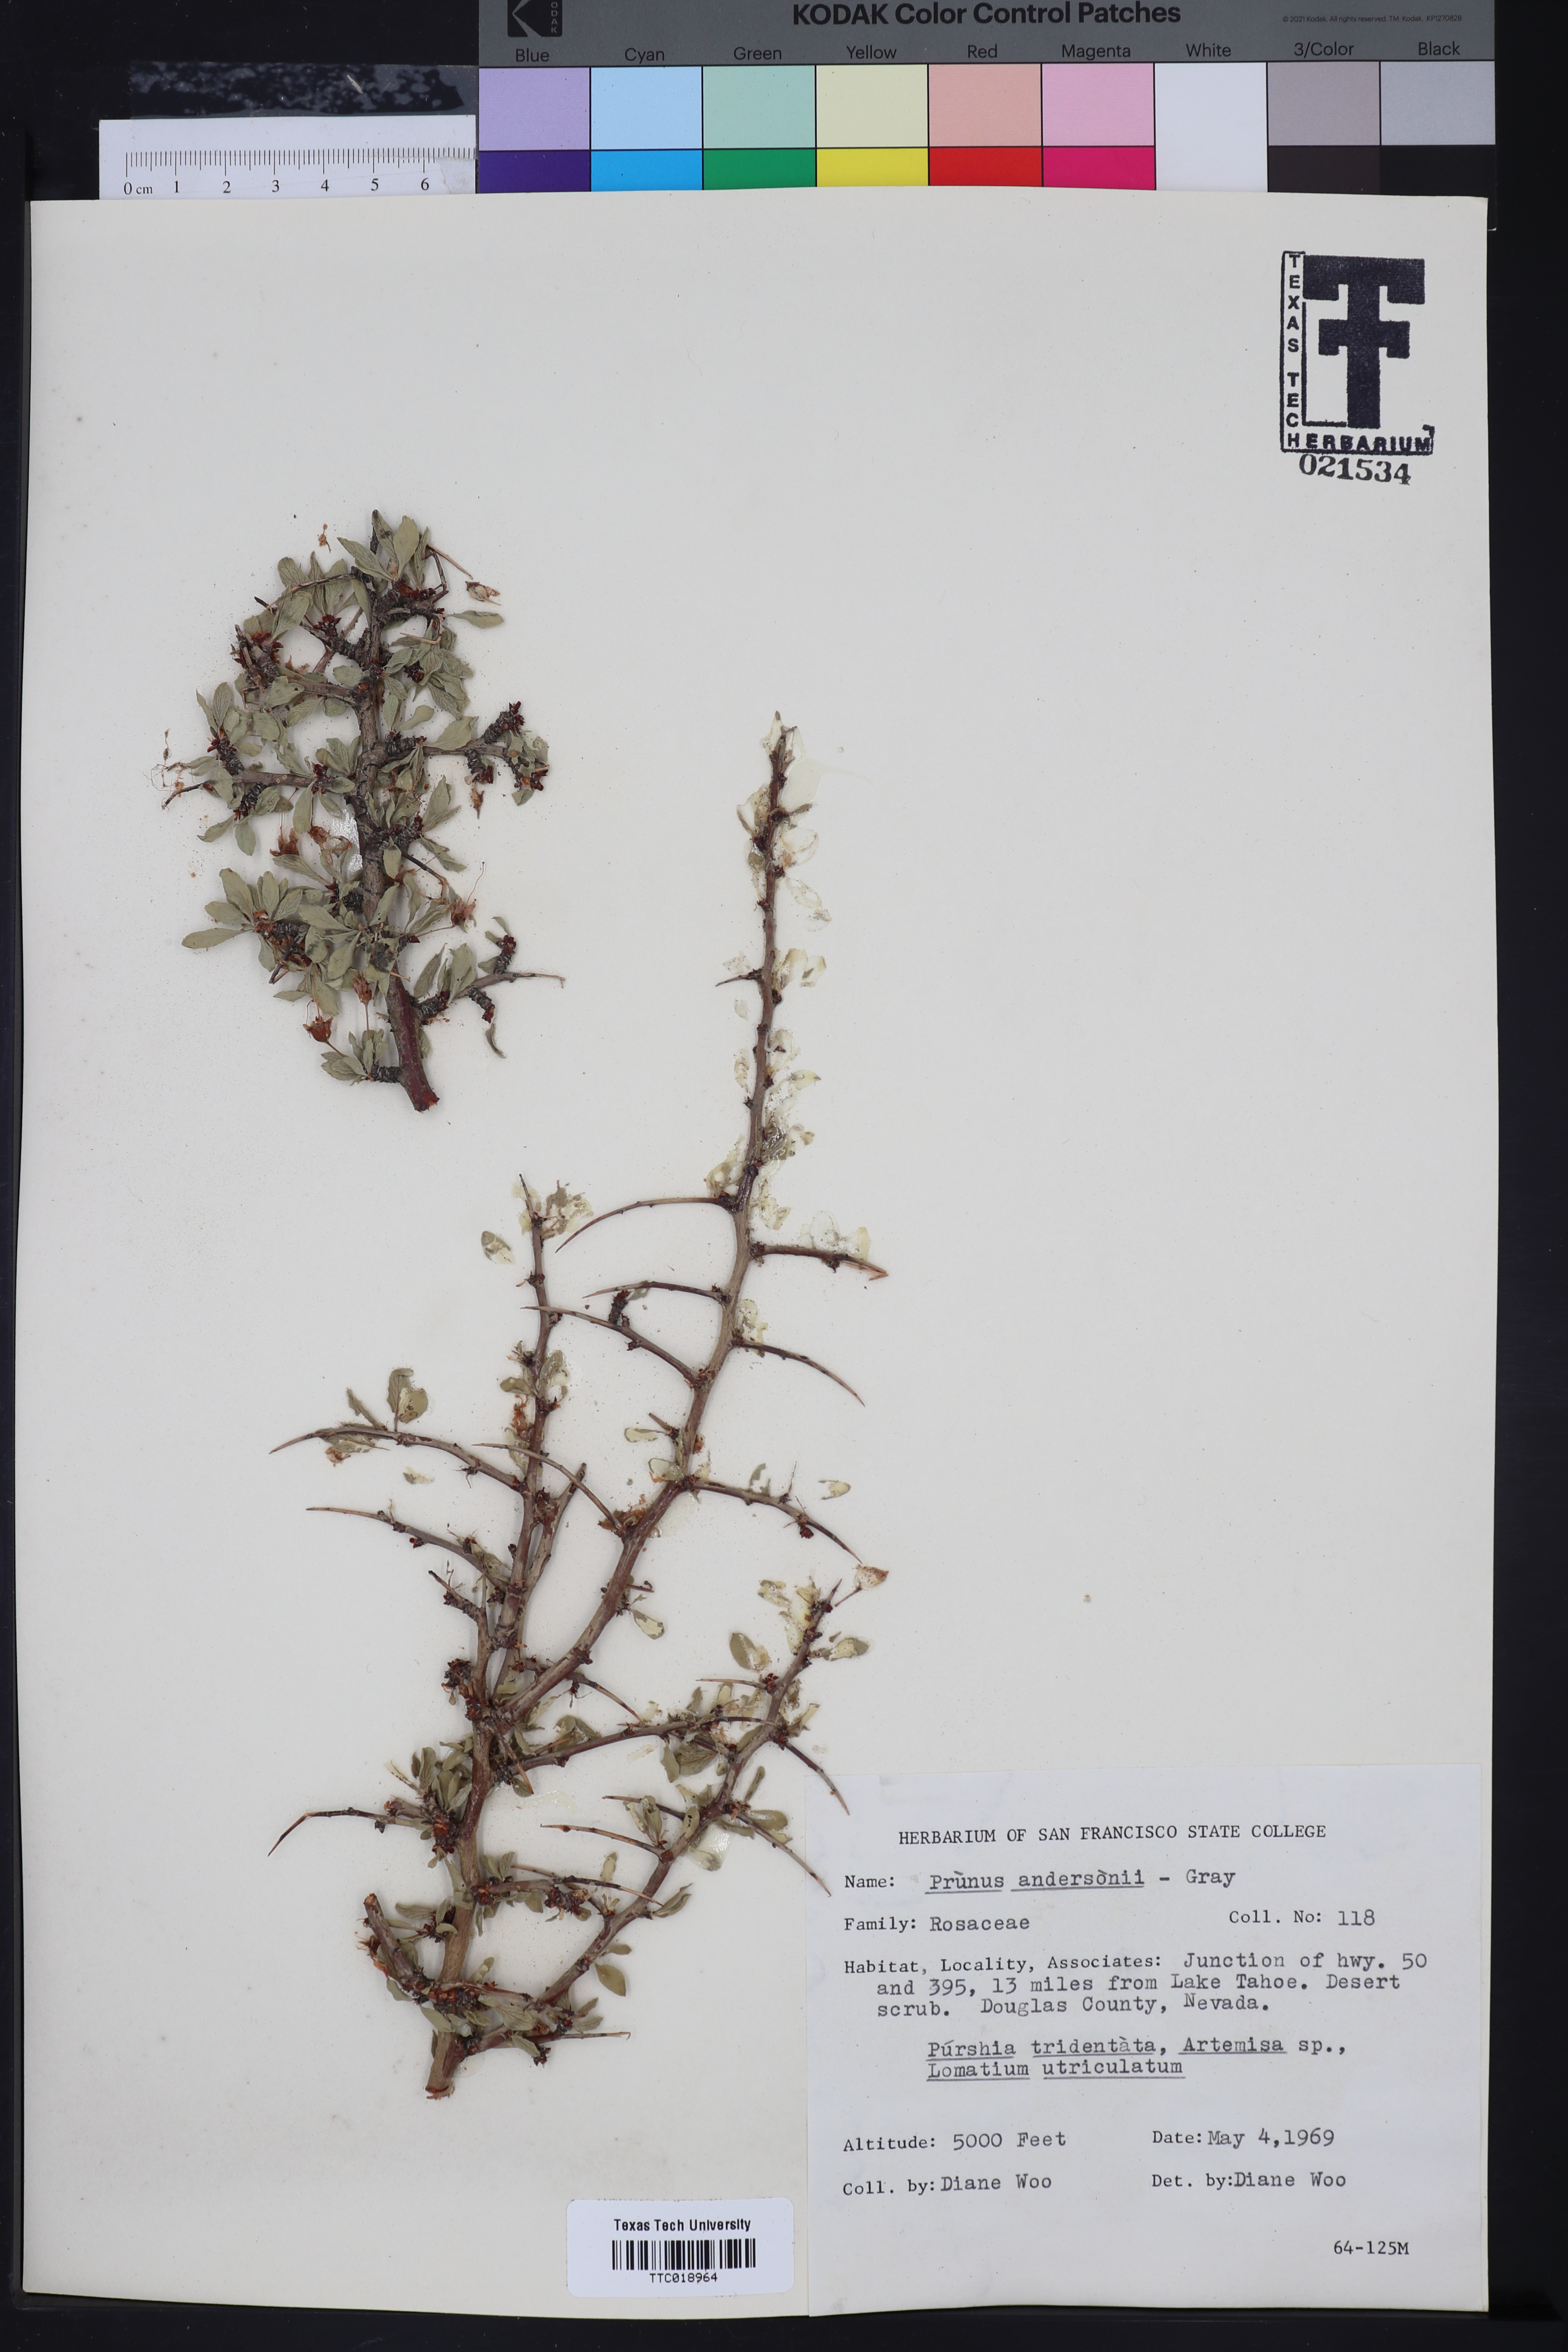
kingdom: Plantae
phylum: Tracheophyta
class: Magnoliopsida
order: Rosales
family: Rosaceae
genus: Prunus
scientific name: Prunus andersonii
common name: Desert peach
